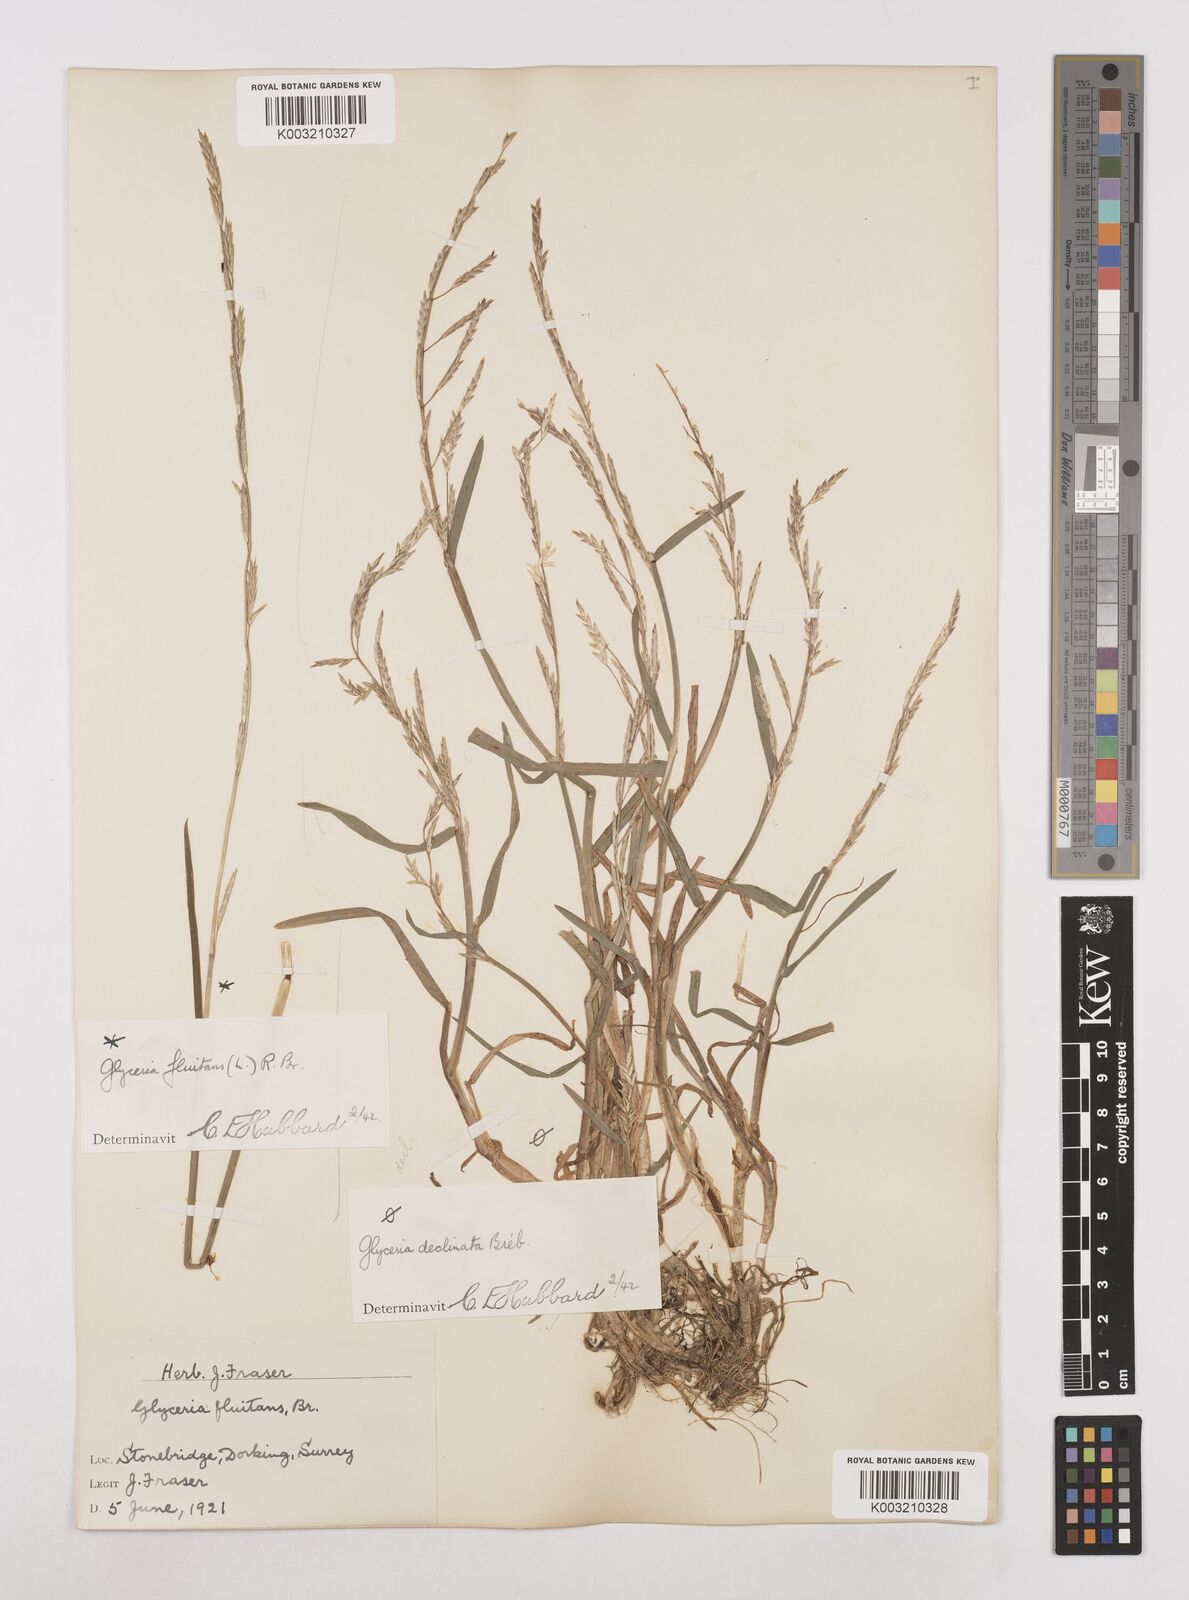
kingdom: Plantae
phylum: Tracheophyta
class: Liliopsida
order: Poales
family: Poaceae
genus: Glyceria
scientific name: Glyceria declinata
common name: Small sweet-grass
